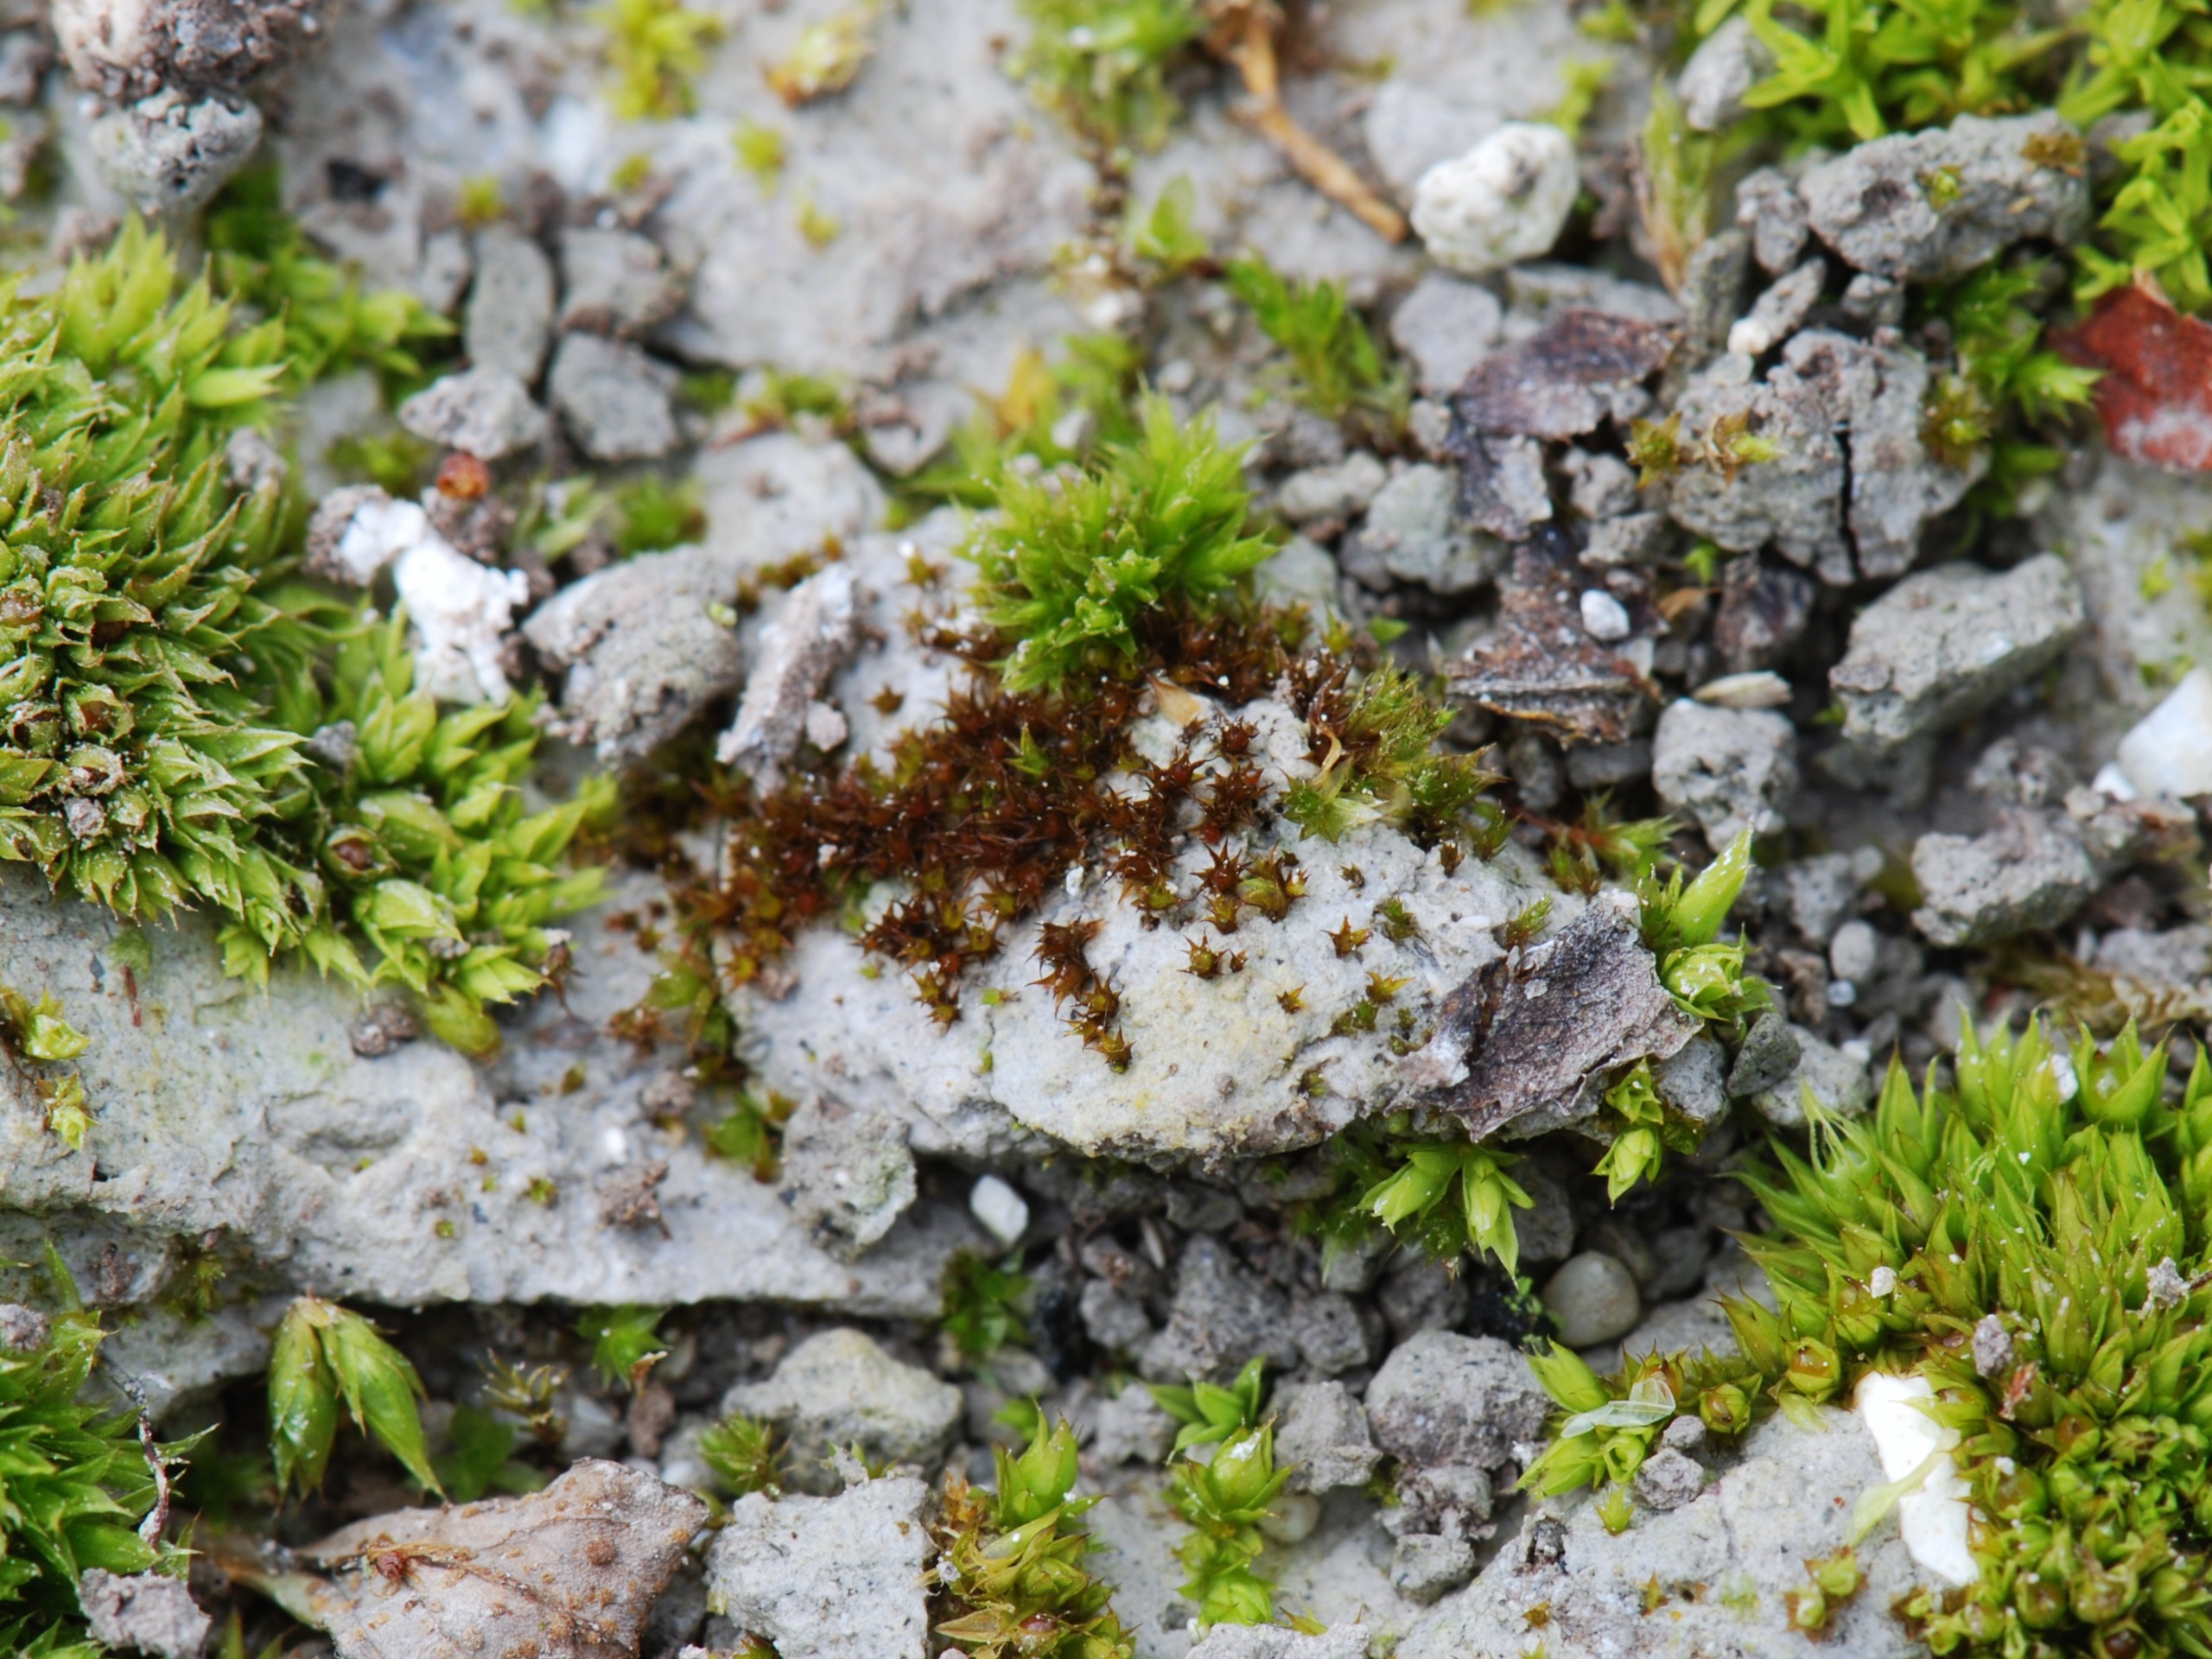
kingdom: Plantae
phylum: Bryophyta
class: Bryopsida
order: Pottiales
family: Pottiaceae
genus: Microbryum
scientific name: Microbryum floerkeanum
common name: Dværg-småmos
